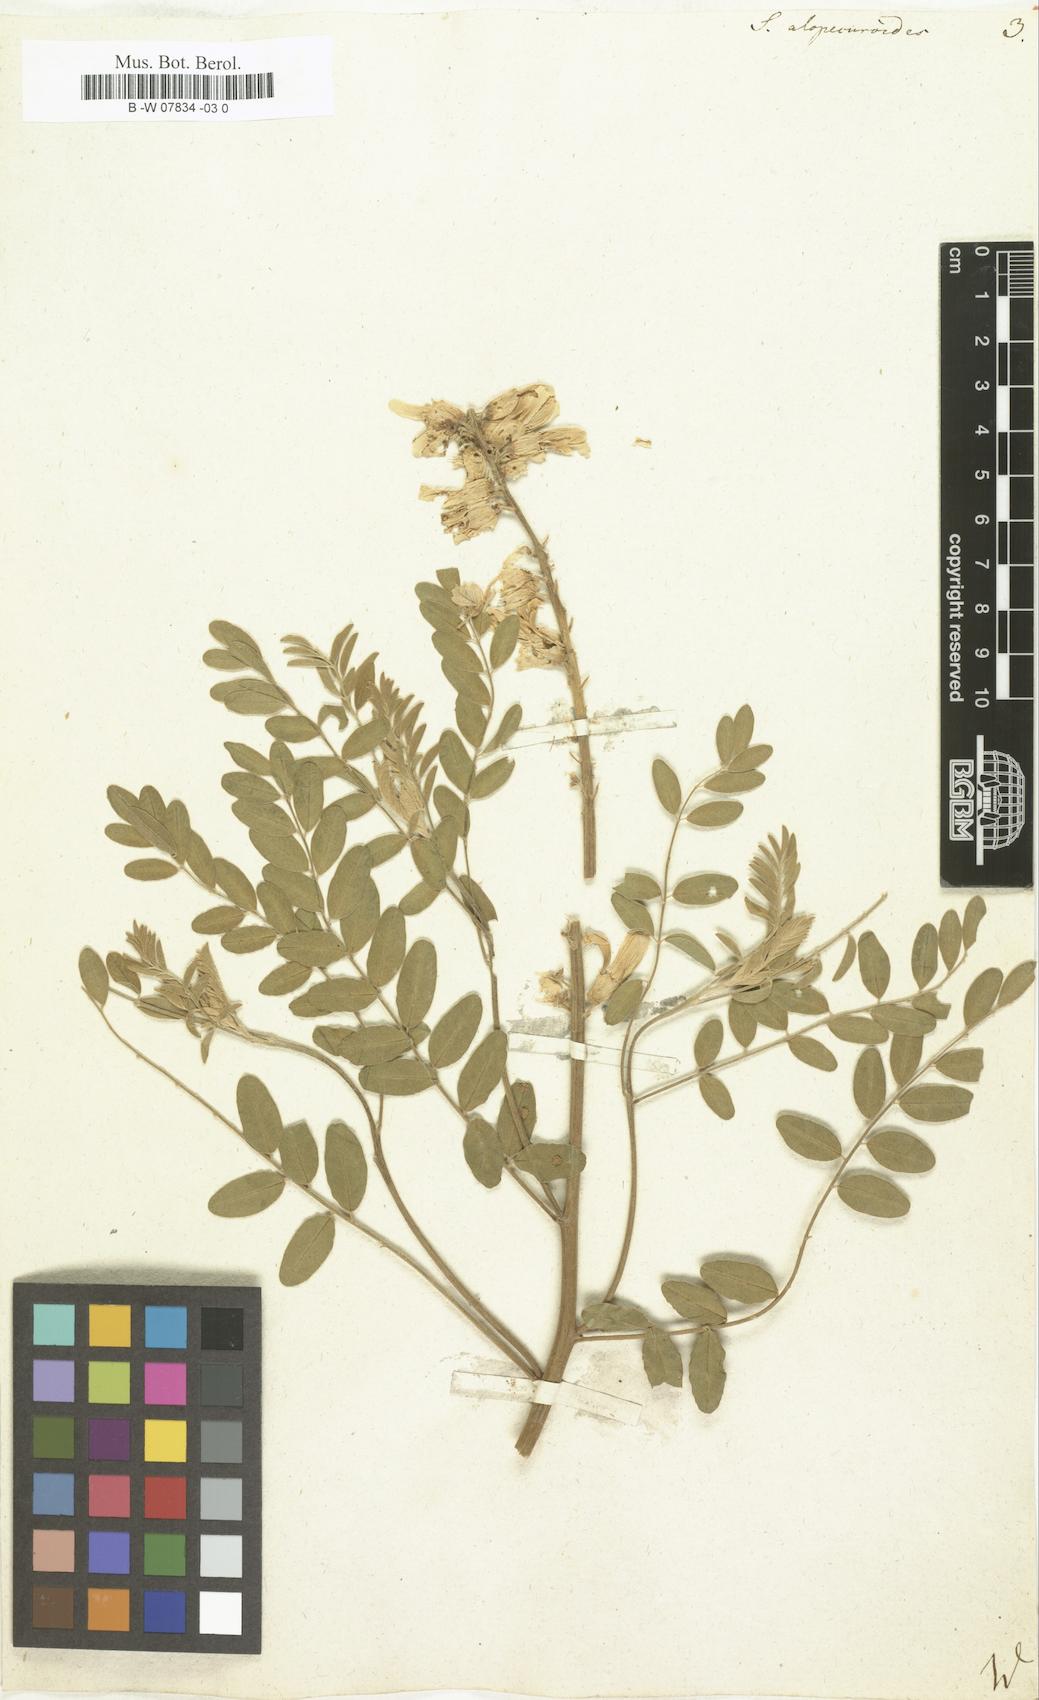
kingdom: Plantae
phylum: Tracheophyta
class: Magnoliopsida
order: Fabales
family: Fabaceae
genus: Sophora
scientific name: Sophora alopecuroides
